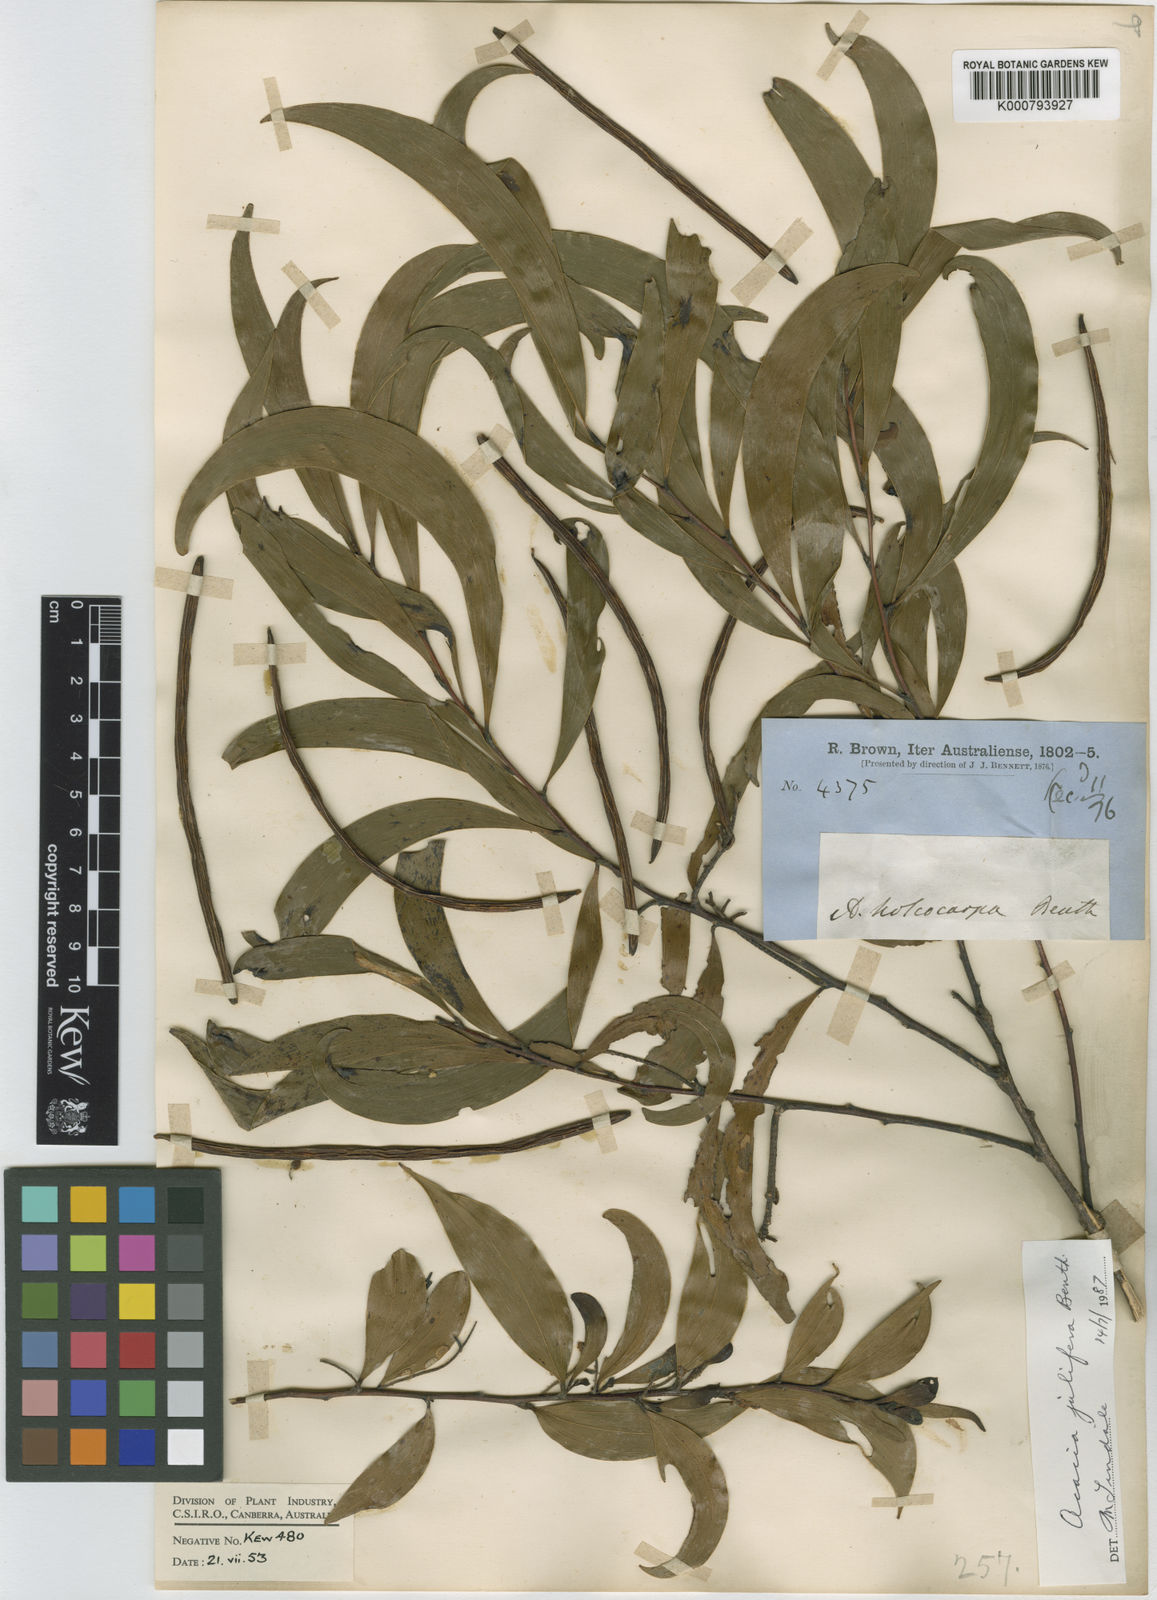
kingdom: Plantae
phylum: Tracheophyta
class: Magnoliopsida
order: Fabales
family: Fabaceae
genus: Acacia
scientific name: Acacia
